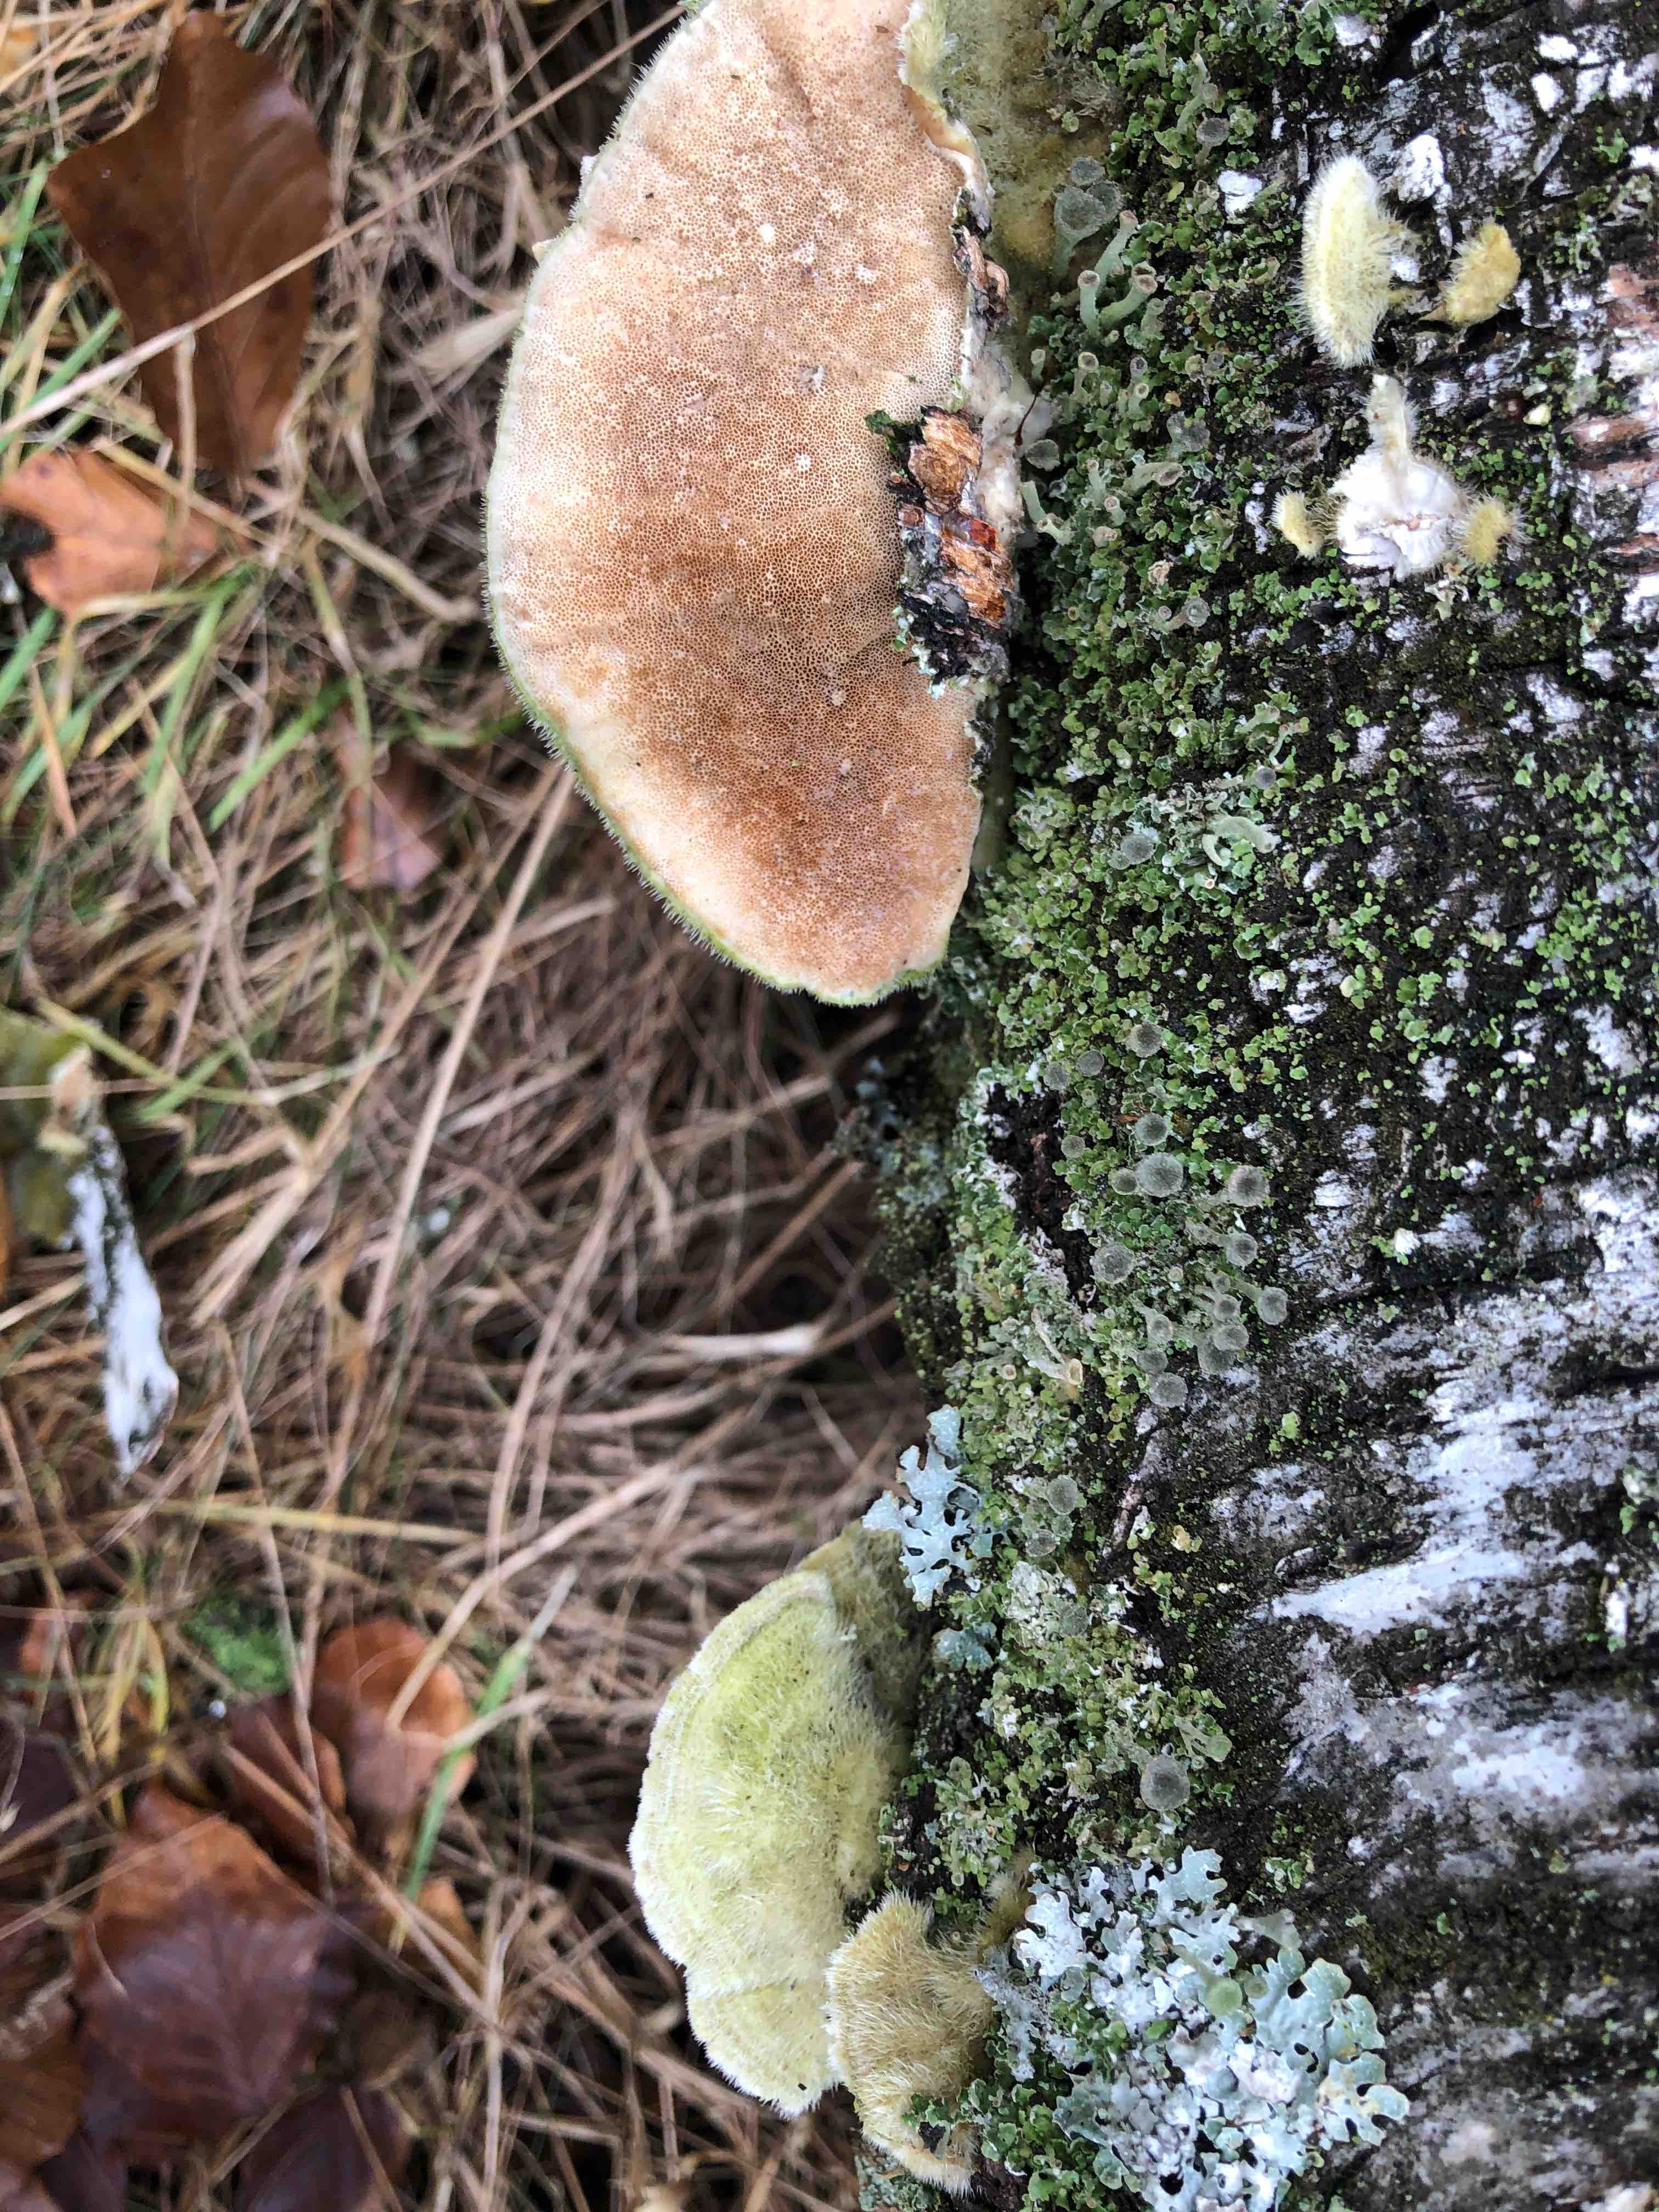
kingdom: Fungi
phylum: Basidiomycota
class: Agaricomycetes
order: Polyporales
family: Polyporaceae
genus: Trametes
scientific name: Trametes hirsuta
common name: håret læderporesvamp
